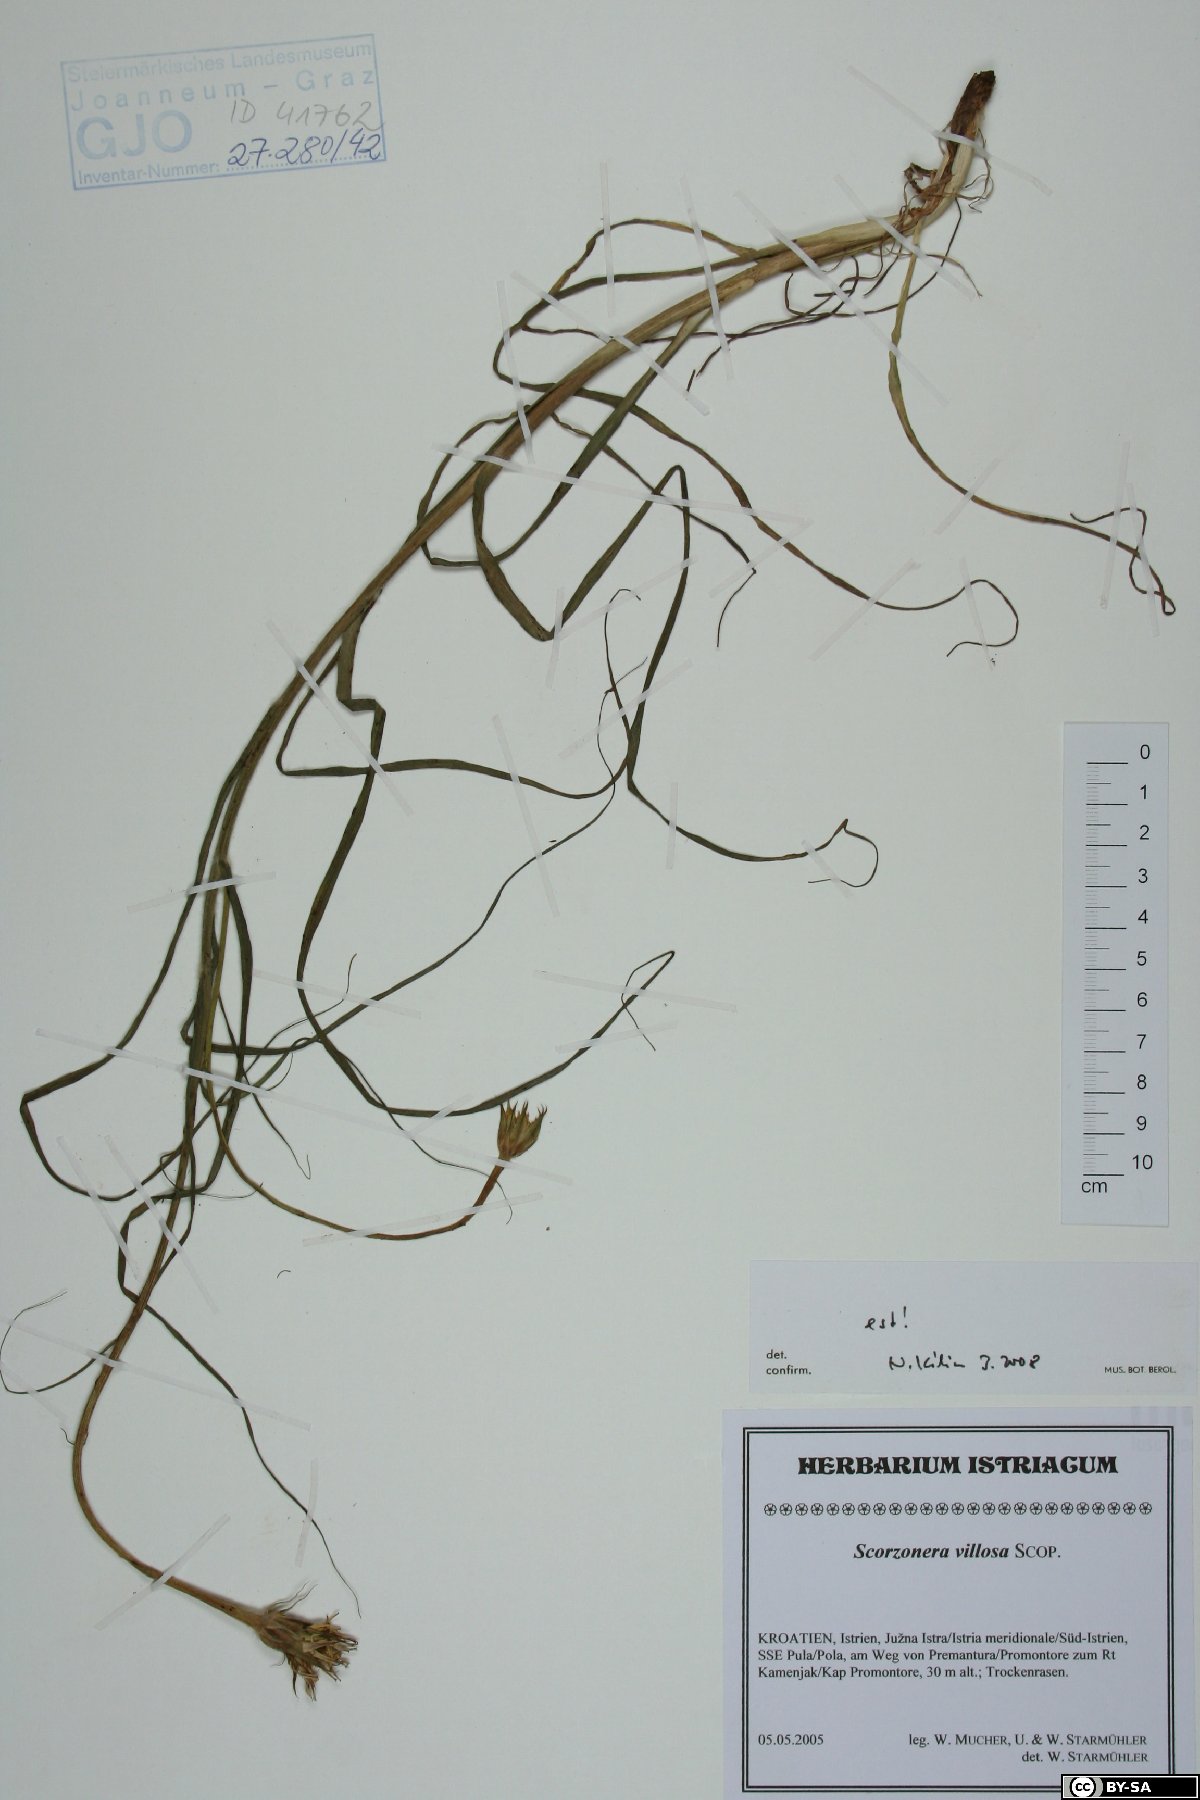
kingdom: Plantae
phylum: Tracheophyta
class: Magnoliopsida
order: Asterales
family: Asteraceae
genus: Gelasia
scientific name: Gelasia villosa
